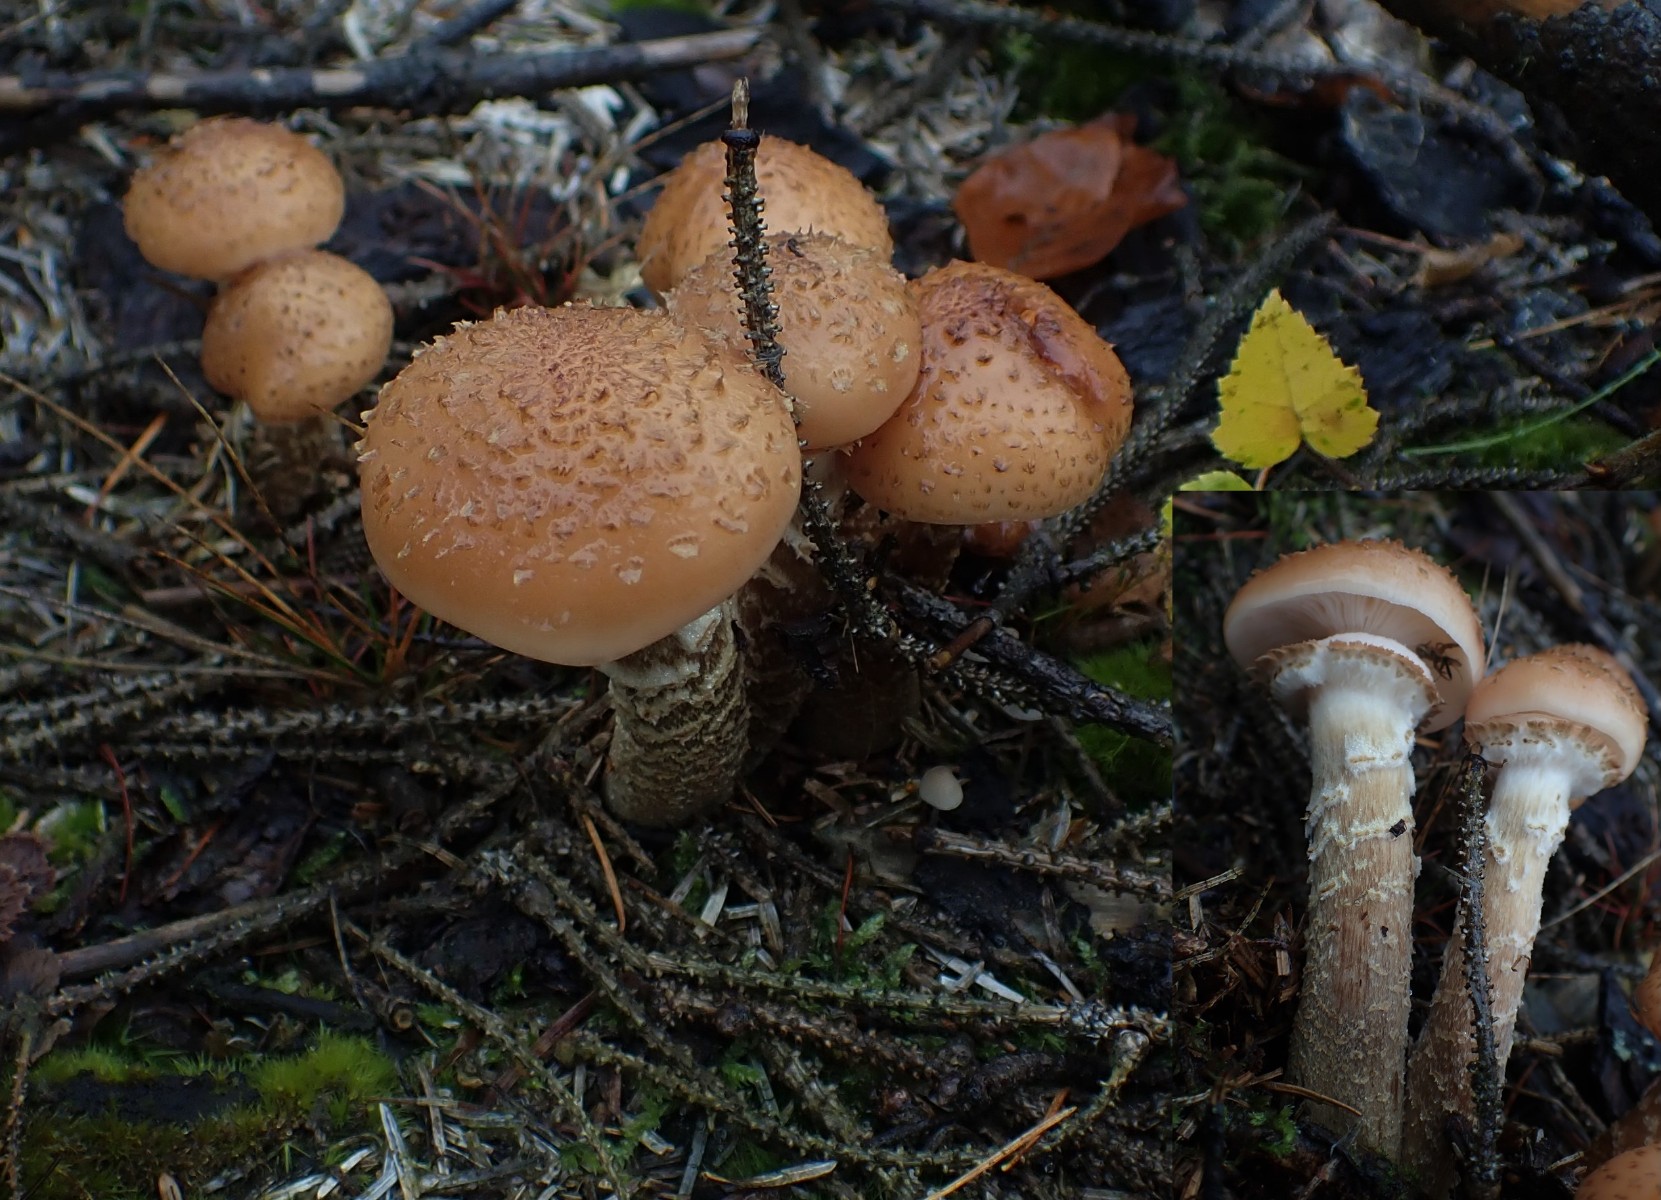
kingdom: Fungi
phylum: Basidiomycota
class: Agaricomycetes
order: Agaricales
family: Physalacriaceae
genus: Armillaria
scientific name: Armillaria ostoyae
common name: mørk honningsvamp
